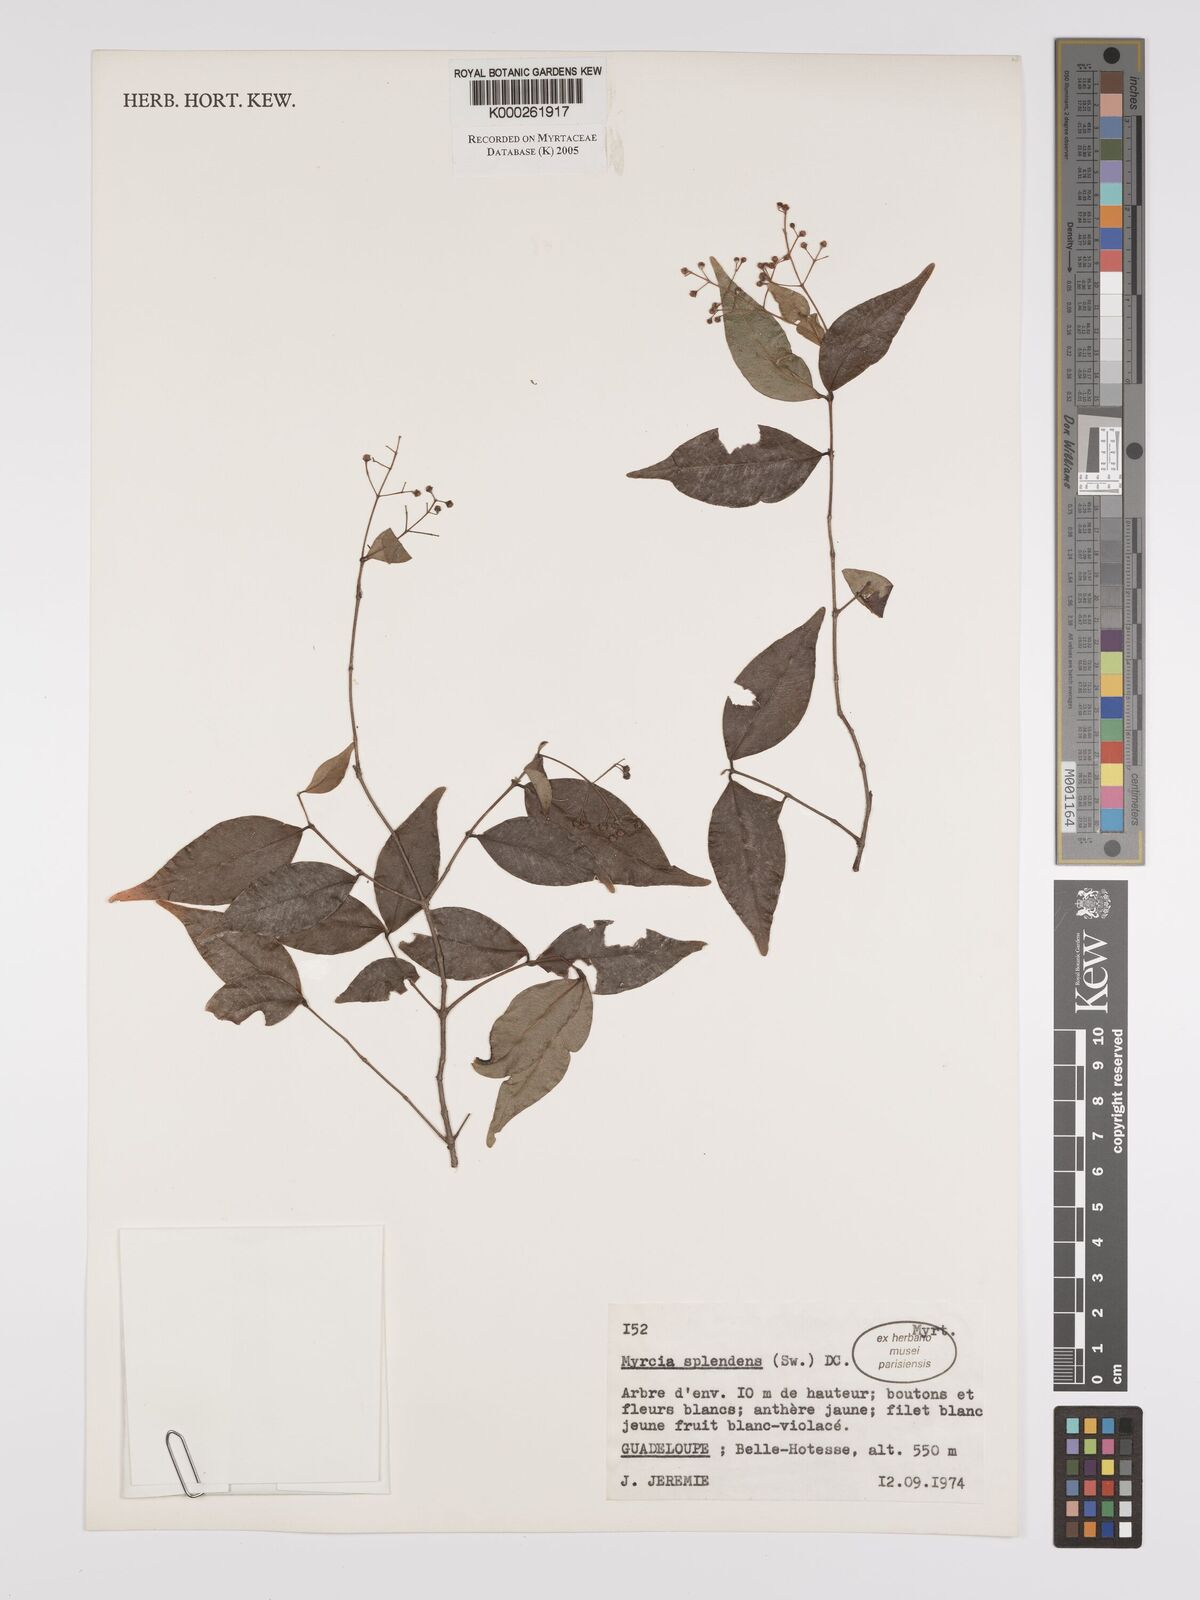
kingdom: Plantae
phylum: Tracheophyta
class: Magnoliopsida
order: Myrtales
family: Myrtaceae
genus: Myrcia
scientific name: Myrcia splendens
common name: Surinam cherry
